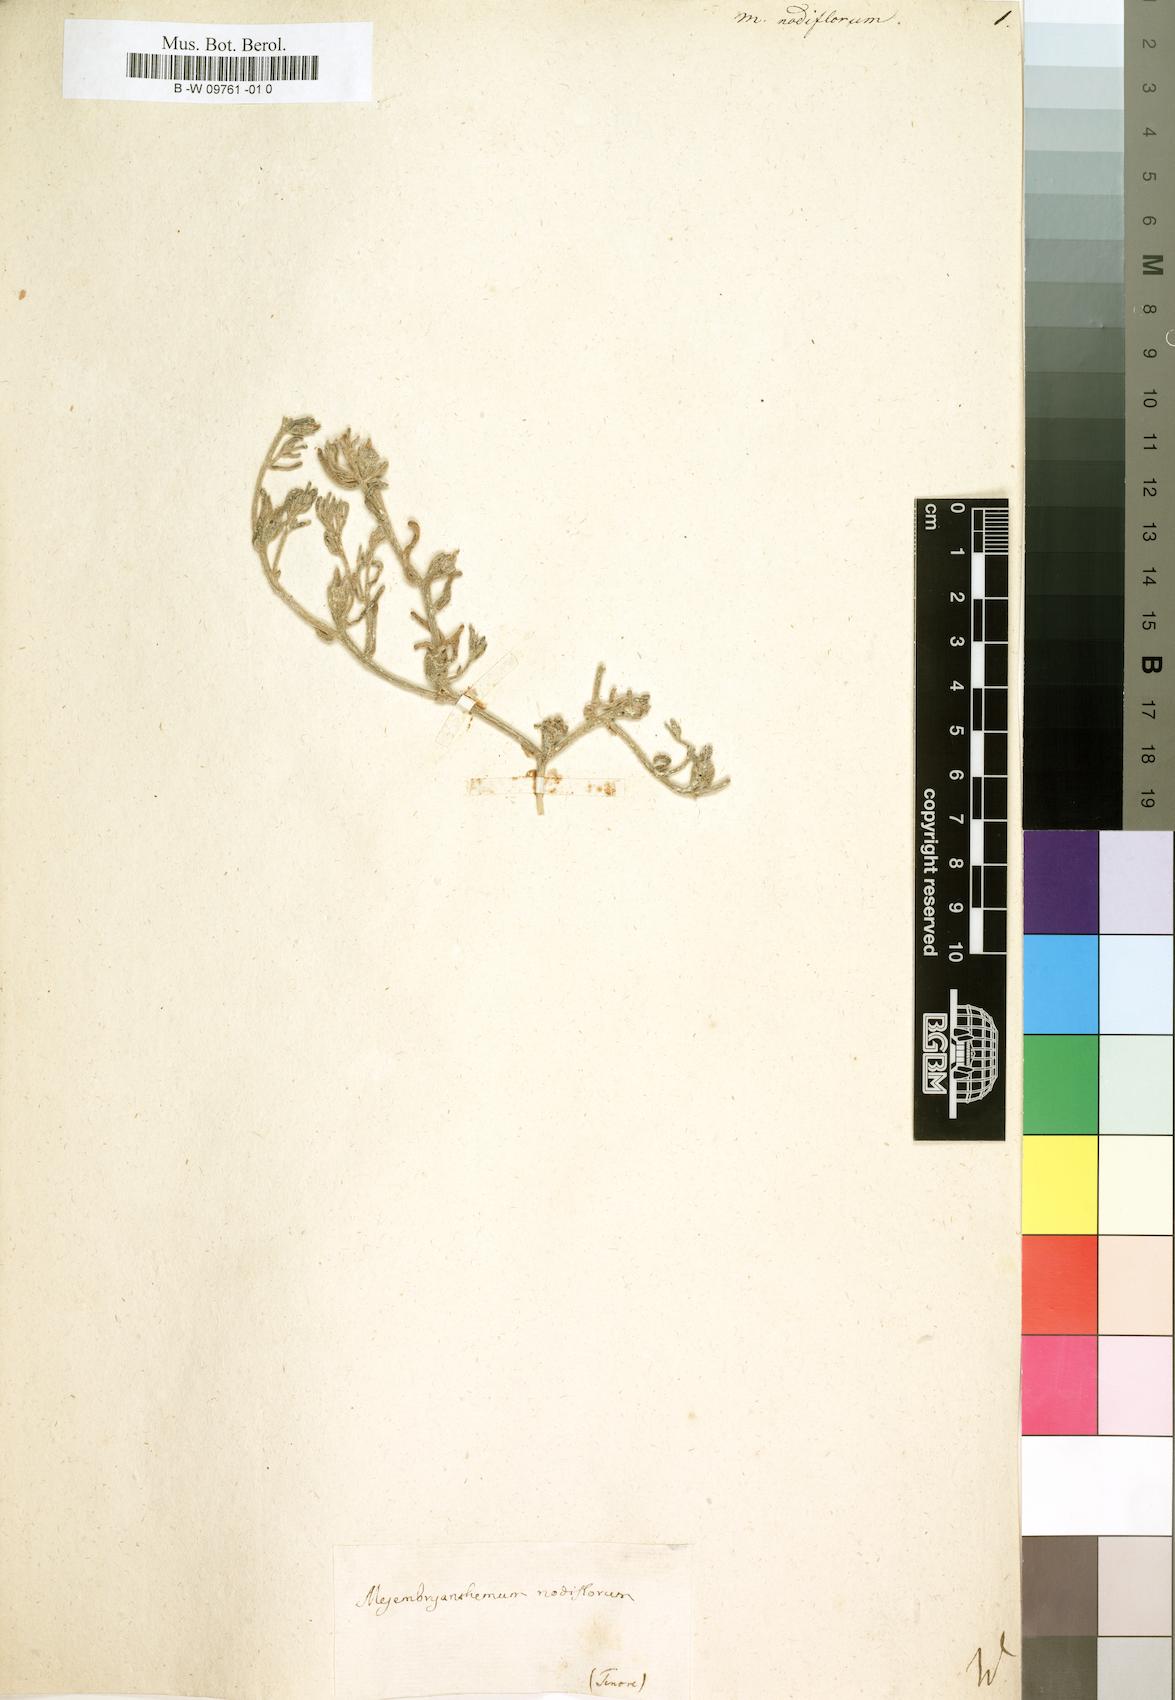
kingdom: Plantae
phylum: Tracheophyta
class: Magnoliopsida
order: Caryophyllales
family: Aizoaceae
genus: Mesembryanthemum
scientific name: Mesembryanthemum nodiflorum
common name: Slenderleaf iceplant
